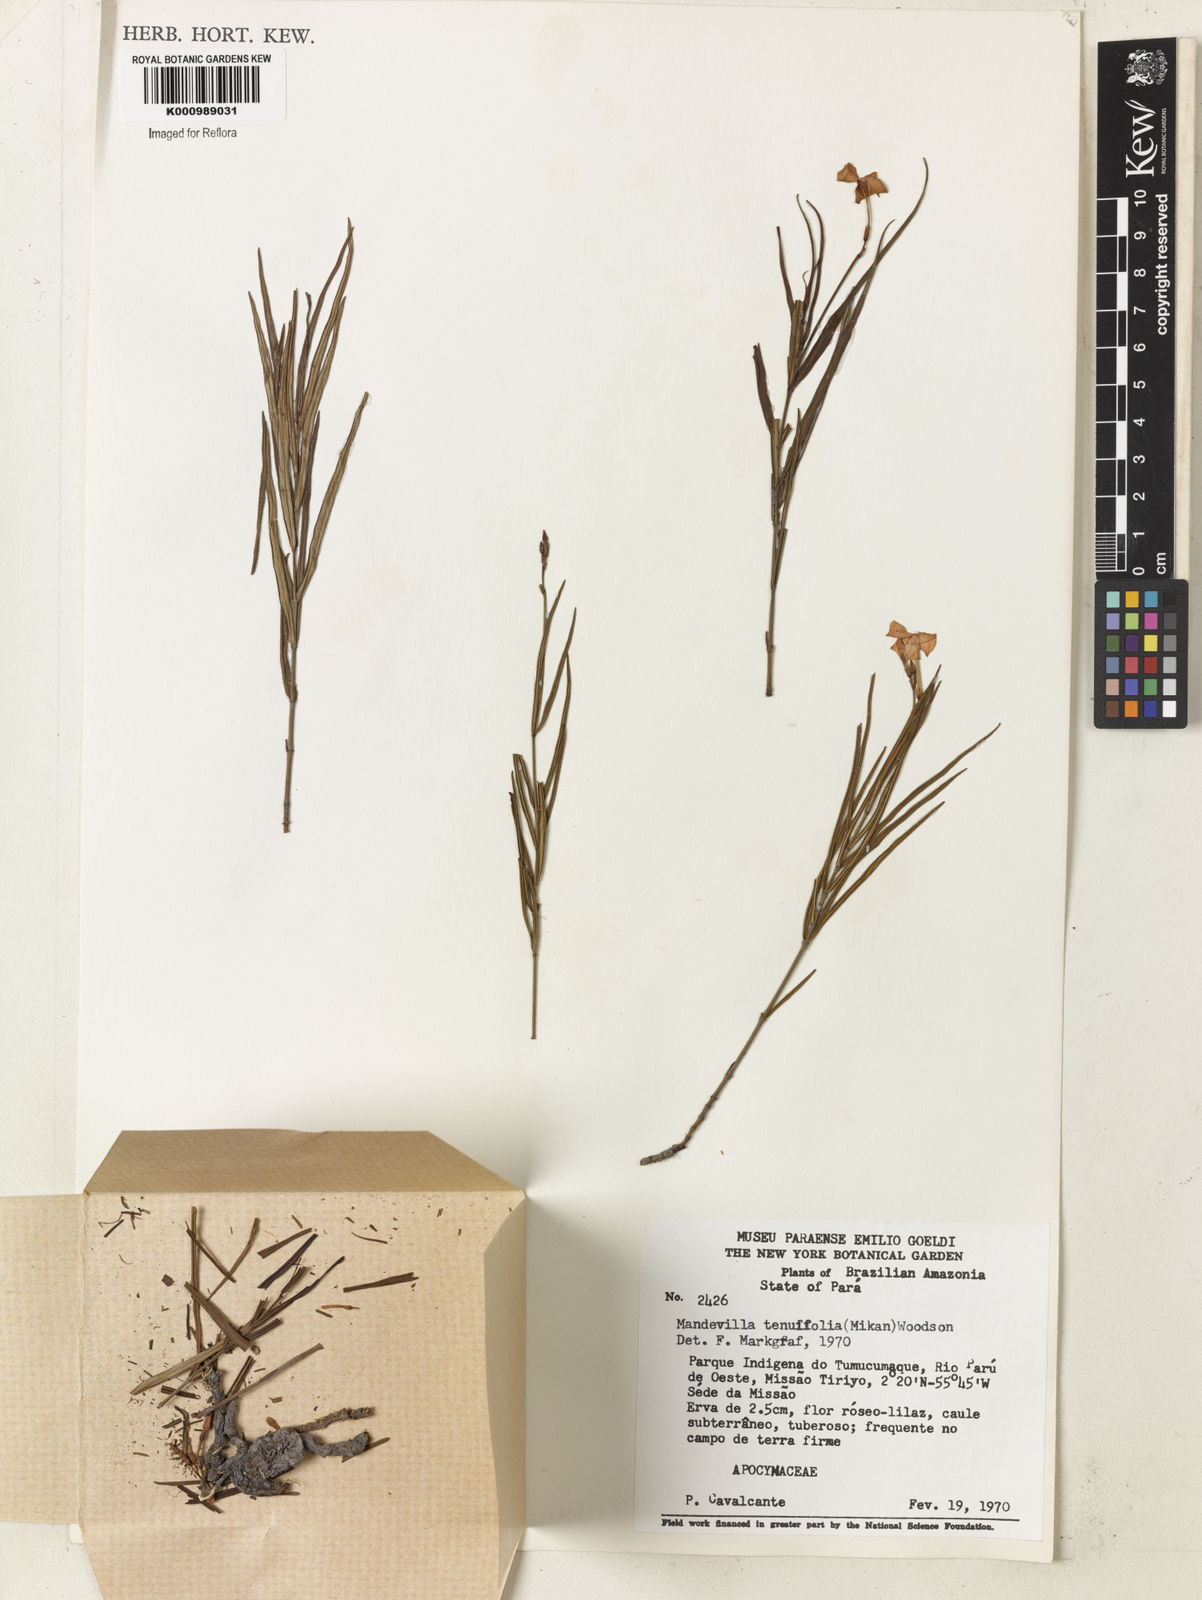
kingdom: Plantae
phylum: Tracheophyta
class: Magnoliopsida
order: Gentianales
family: Apocynaceae
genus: Mandevilla
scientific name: Mandevilla tenuifolia
